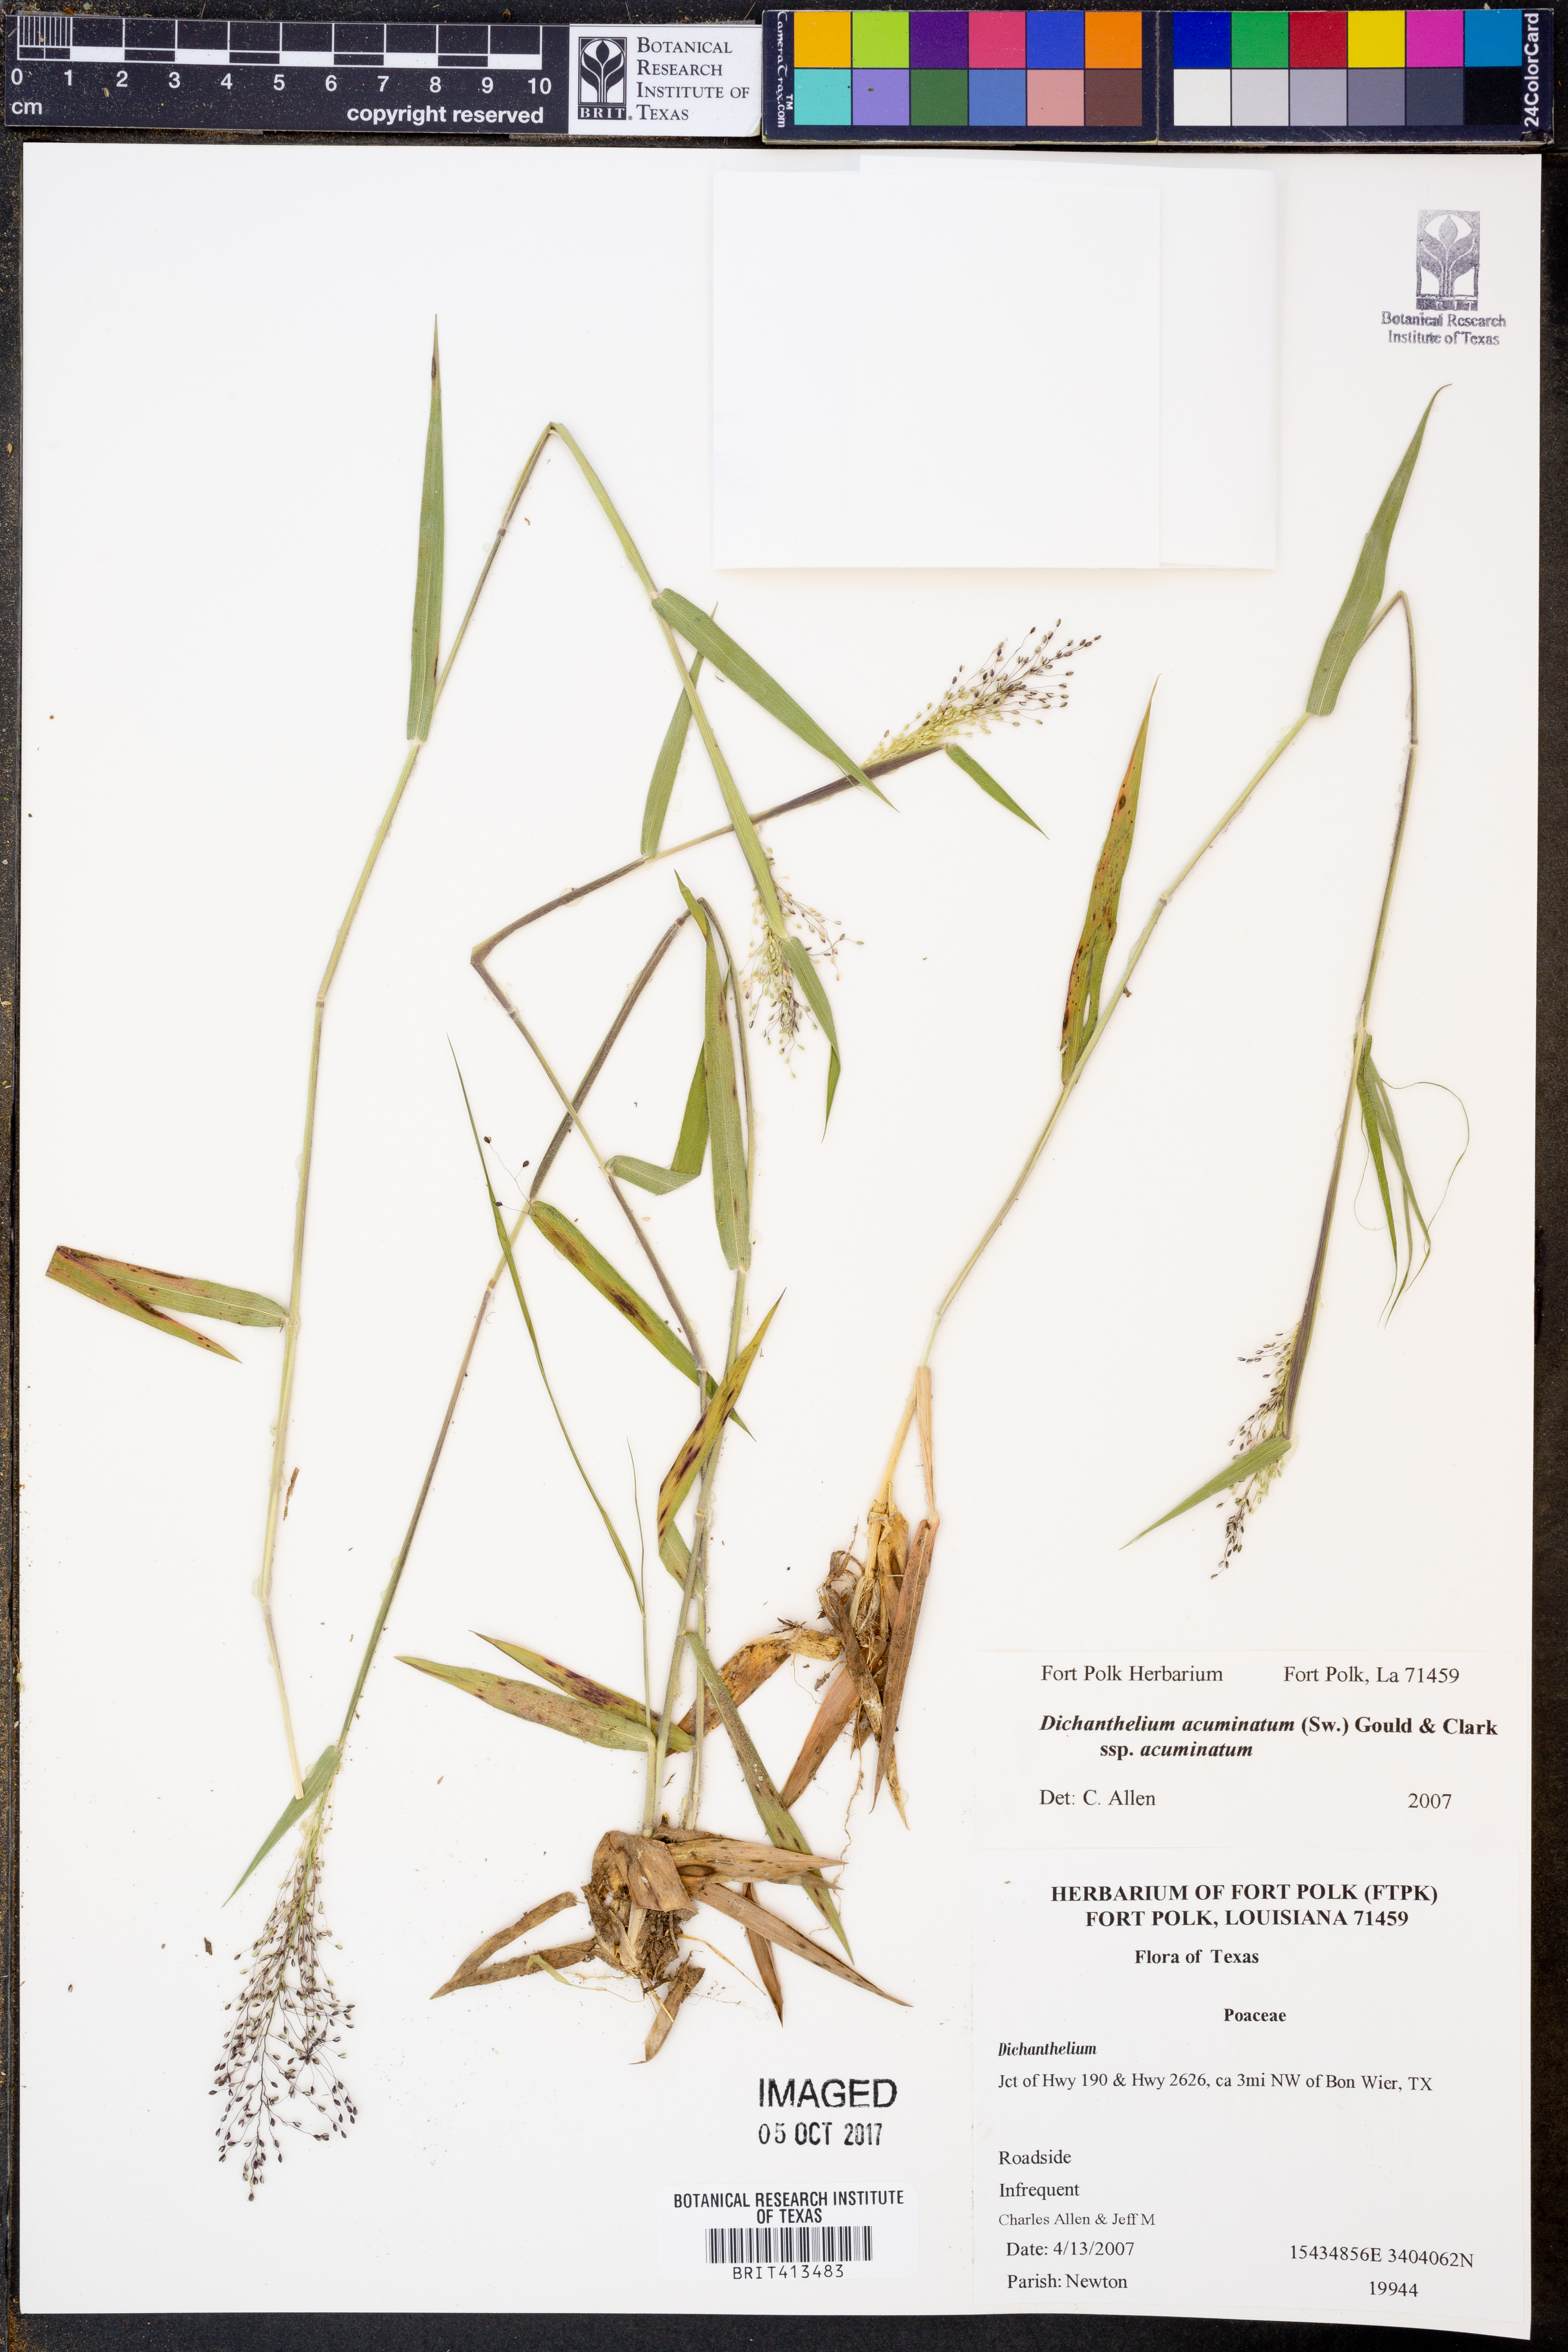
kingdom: Plantae
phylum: Tracheophyta
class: Liliopsida
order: Poales
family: Poaceae
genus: Dichanthelium
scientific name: Dichanthelium acuminatum
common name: Hairy panic grass
